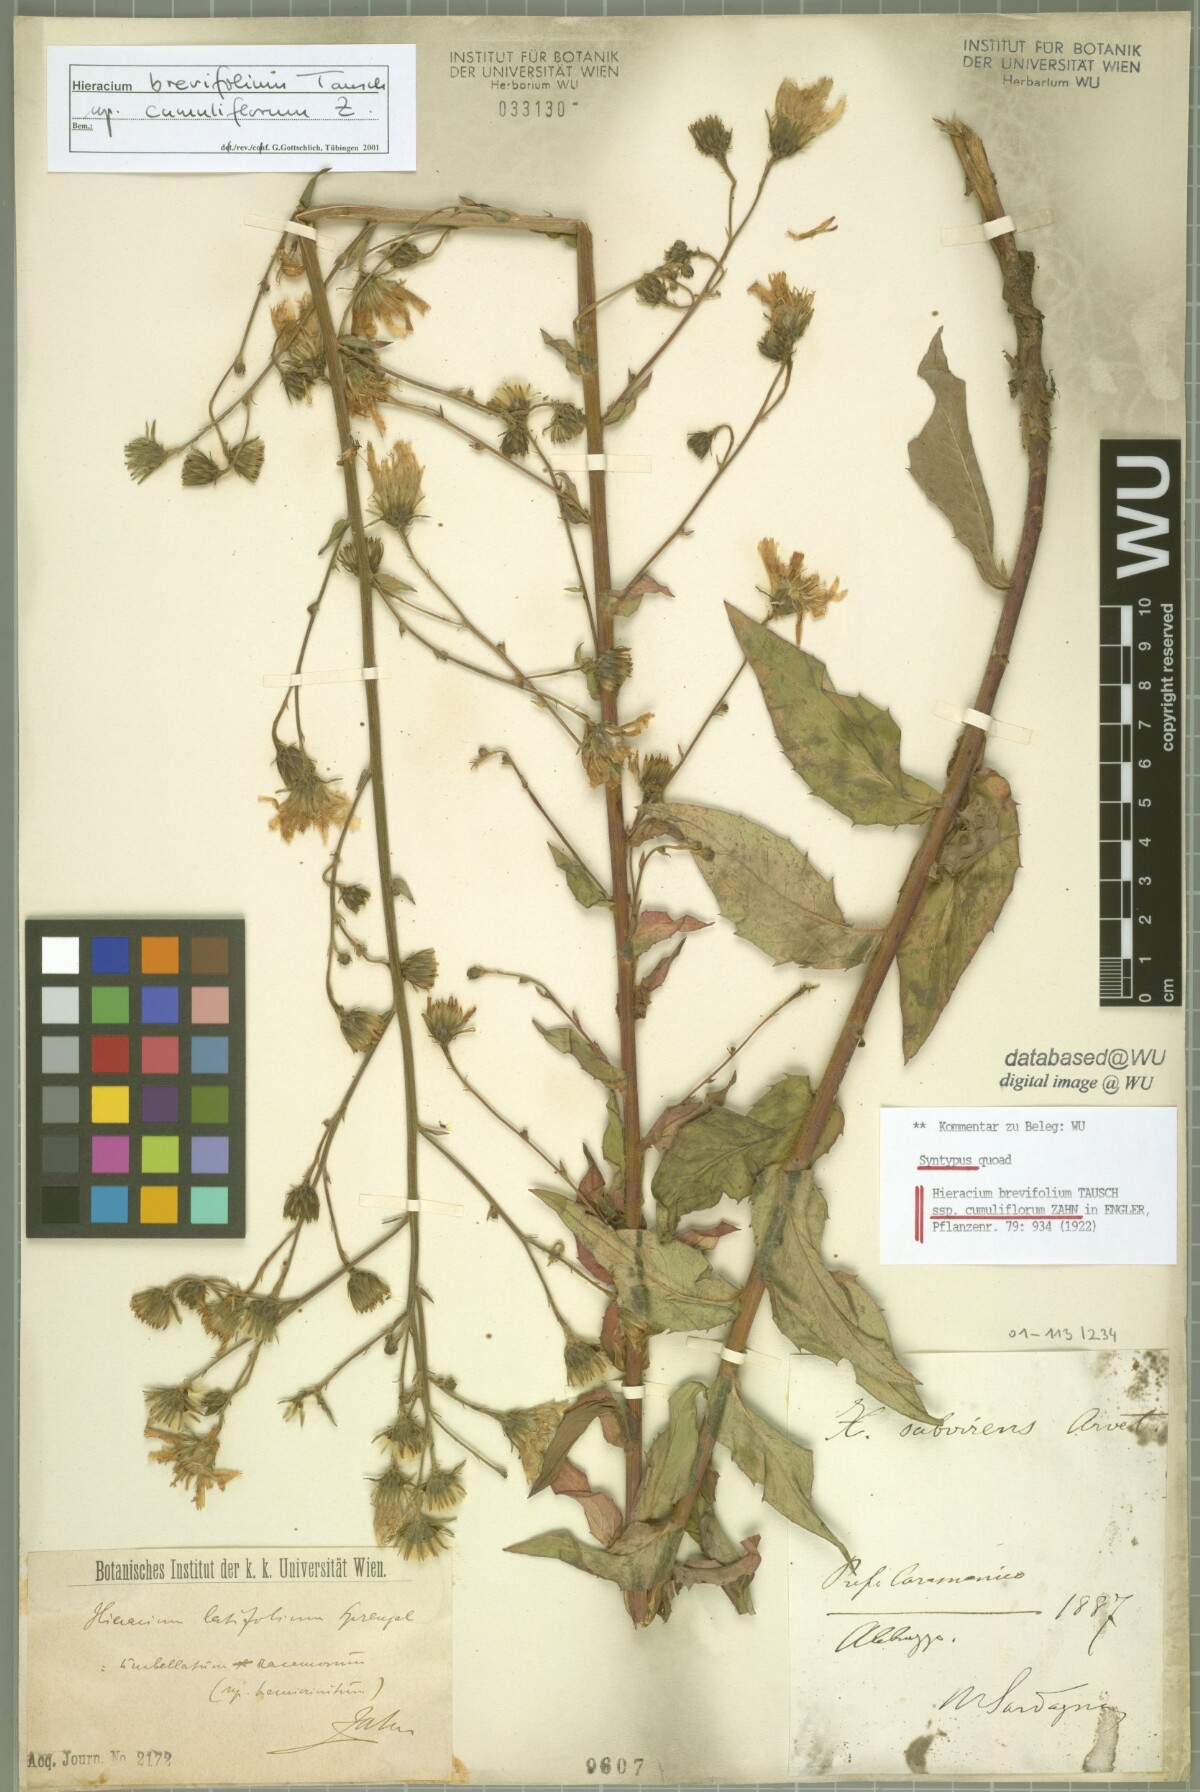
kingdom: Plantae
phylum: Tracheophyta
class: Magnoliopsida
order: Asterales
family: Asteraceae
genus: Hieracium
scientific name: Hieracium sabaudum
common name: New england hawkweed
